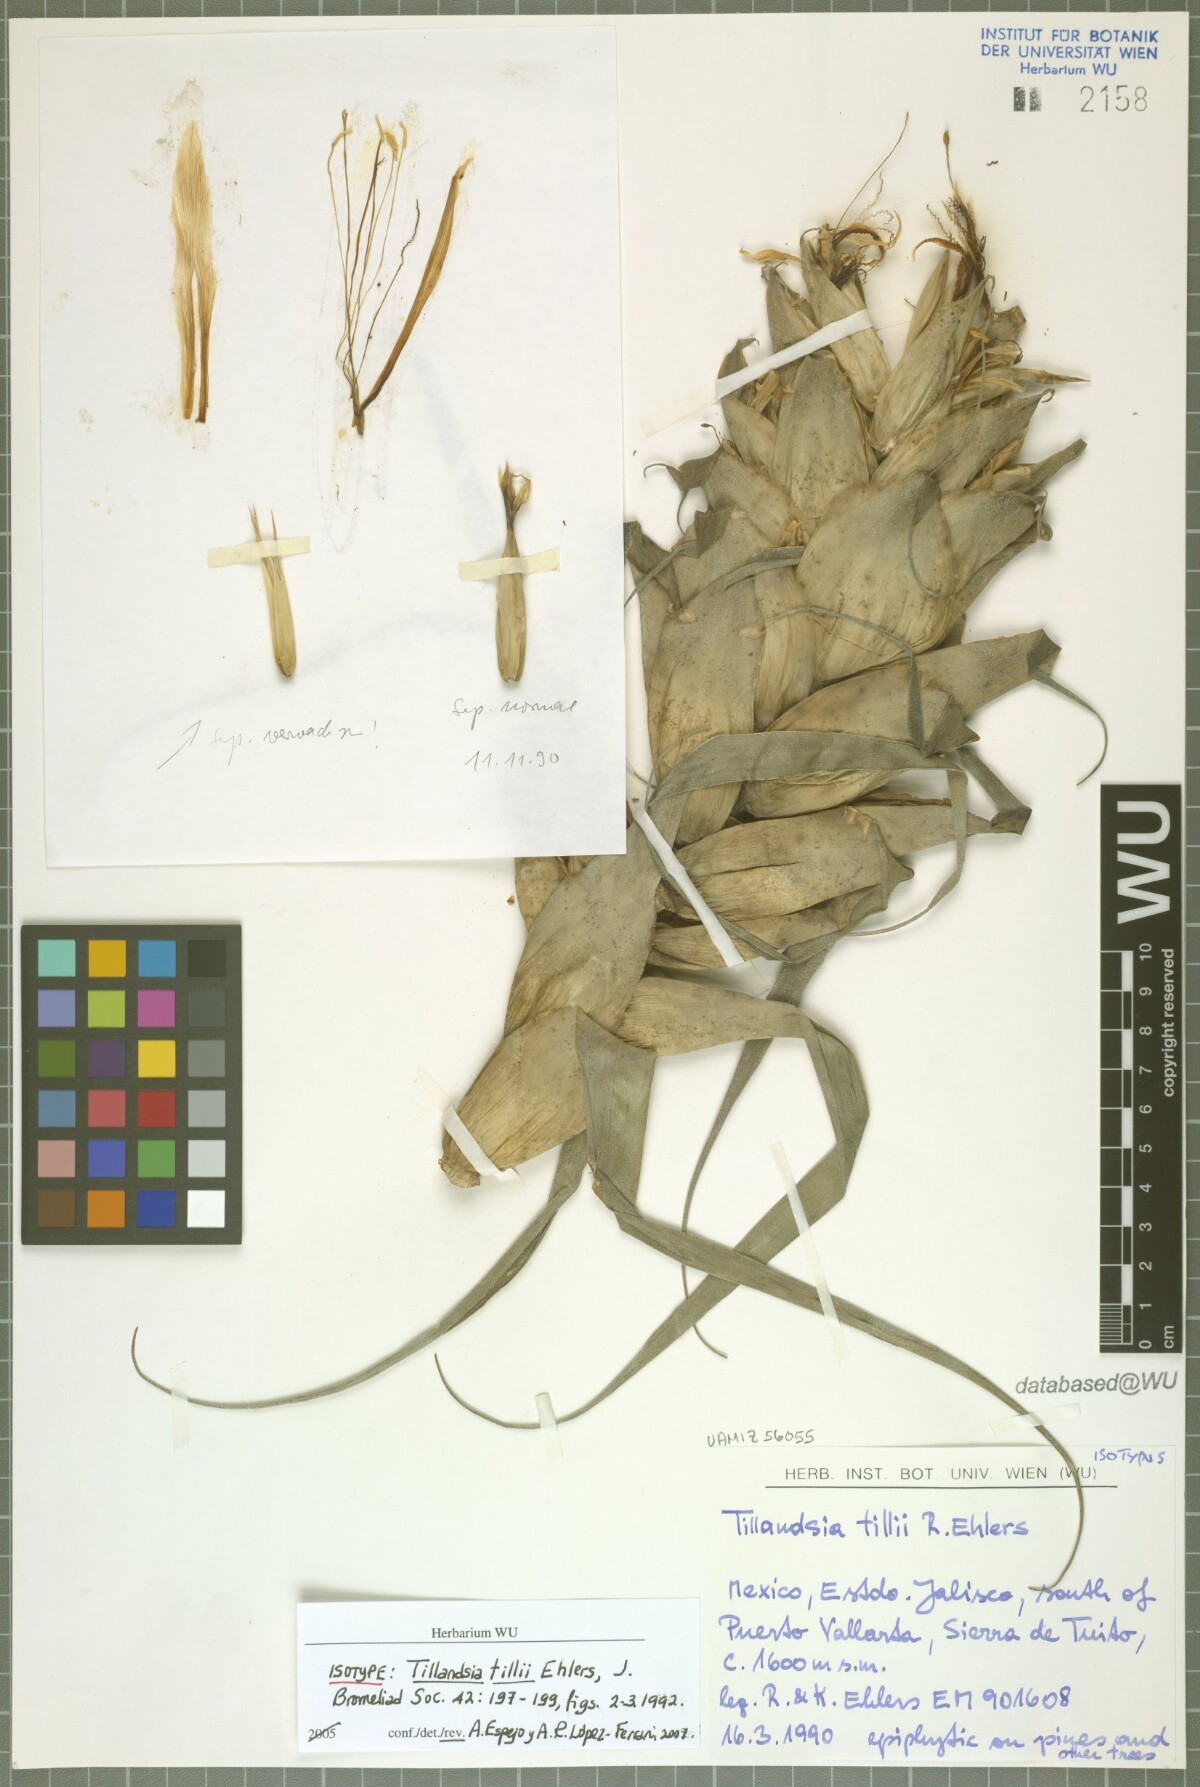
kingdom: Plantae
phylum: Tracheophyta
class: Liliopsida
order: Poales
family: Bromeliaceae
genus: Tillandsia
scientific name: Tillandsia tillii
